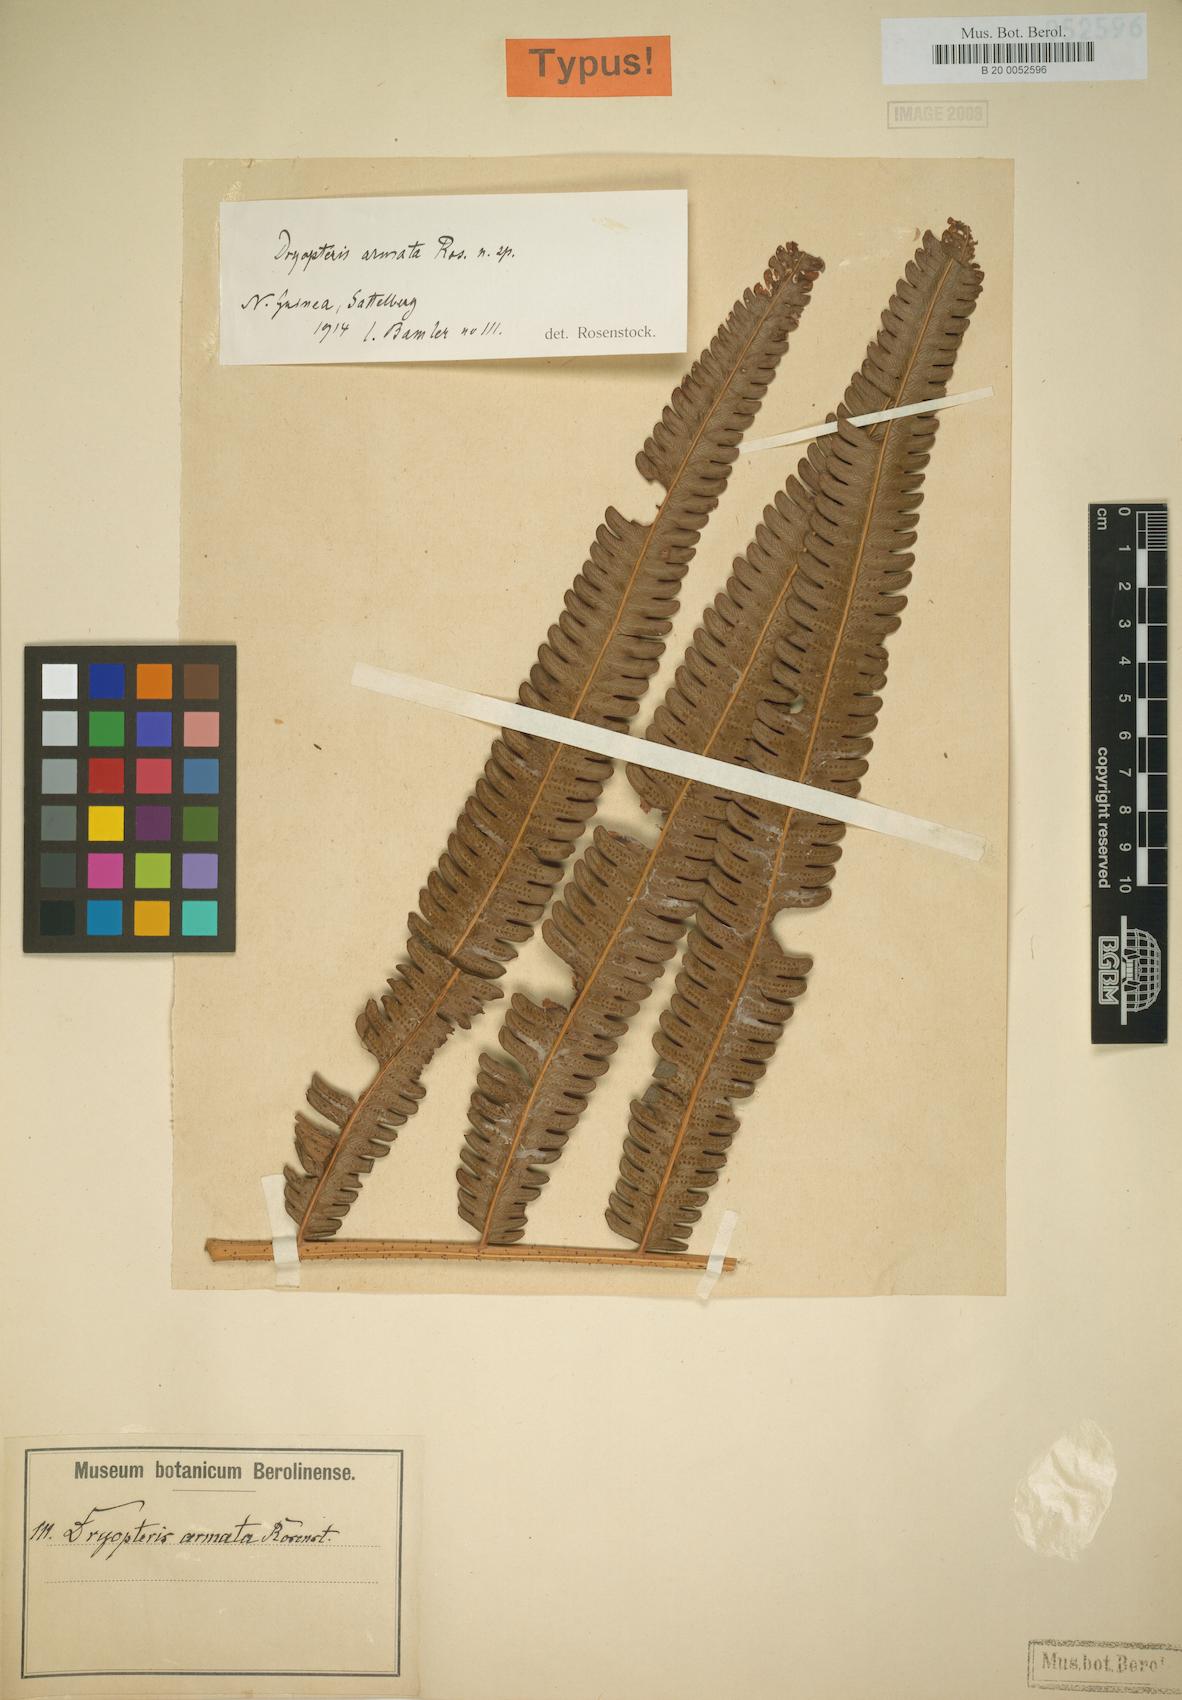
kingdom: Plantae
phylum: Tracheophyta
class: Polypodiopsida
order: Polypodiales
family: Thelypteridaceae
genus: Chingia
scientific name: Chingia imponens
